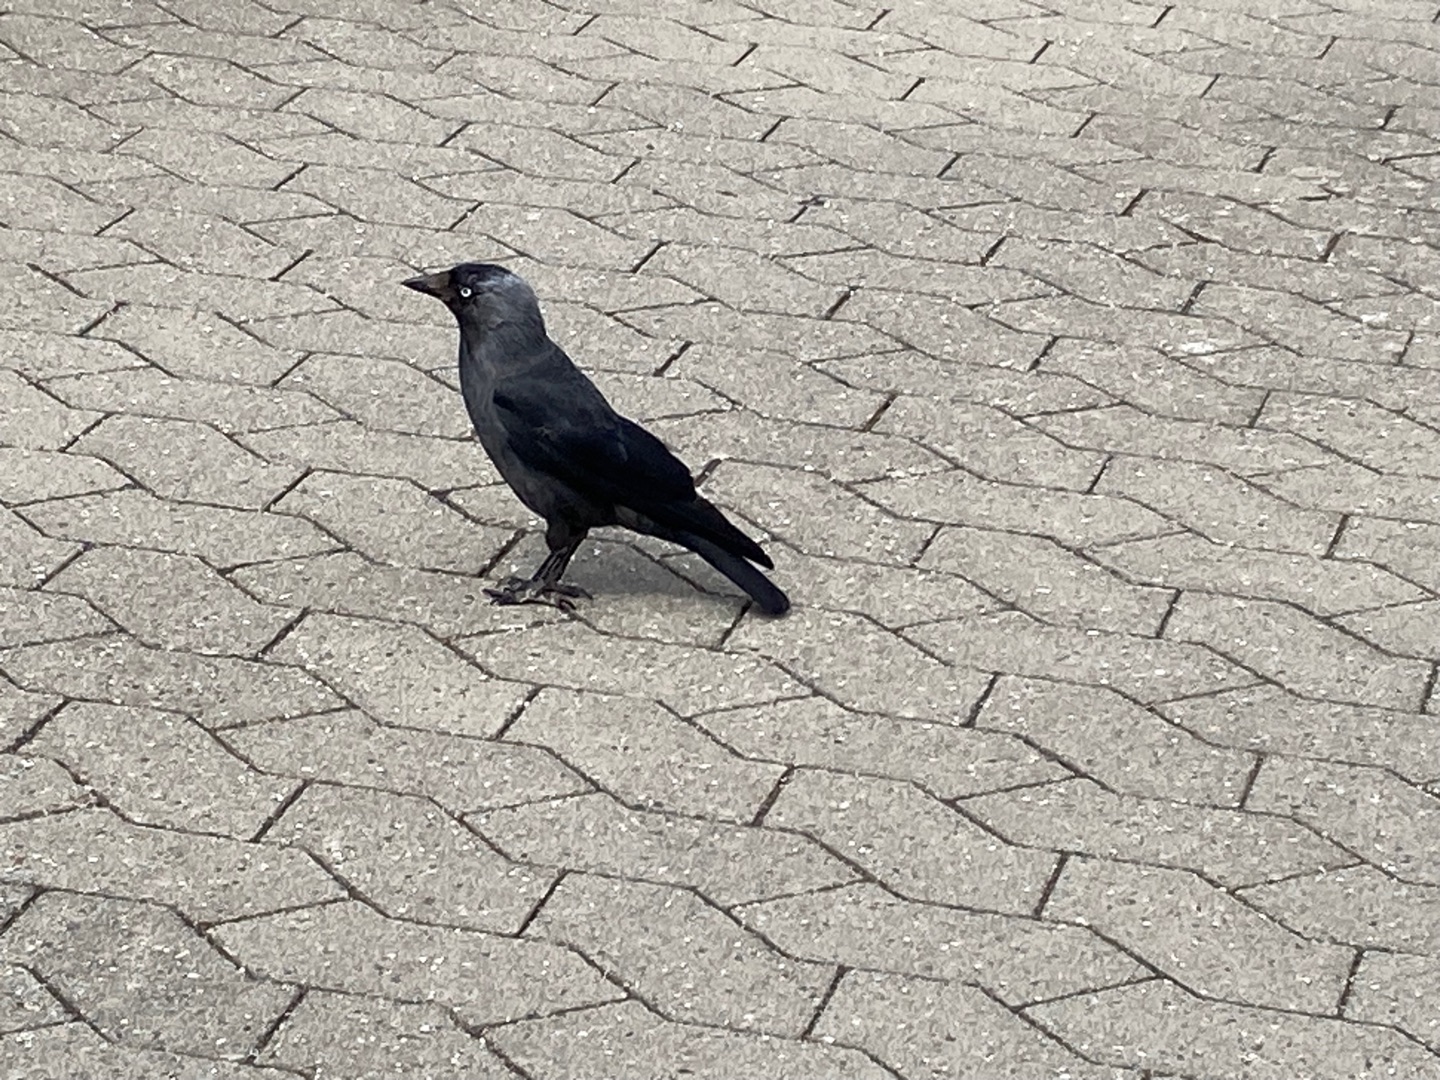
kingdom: Animalia
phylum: Chordata
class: Aves
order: Passeriformes
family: Corvidae
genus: Coloeus
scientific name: Coloeus monedula
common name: Allike
